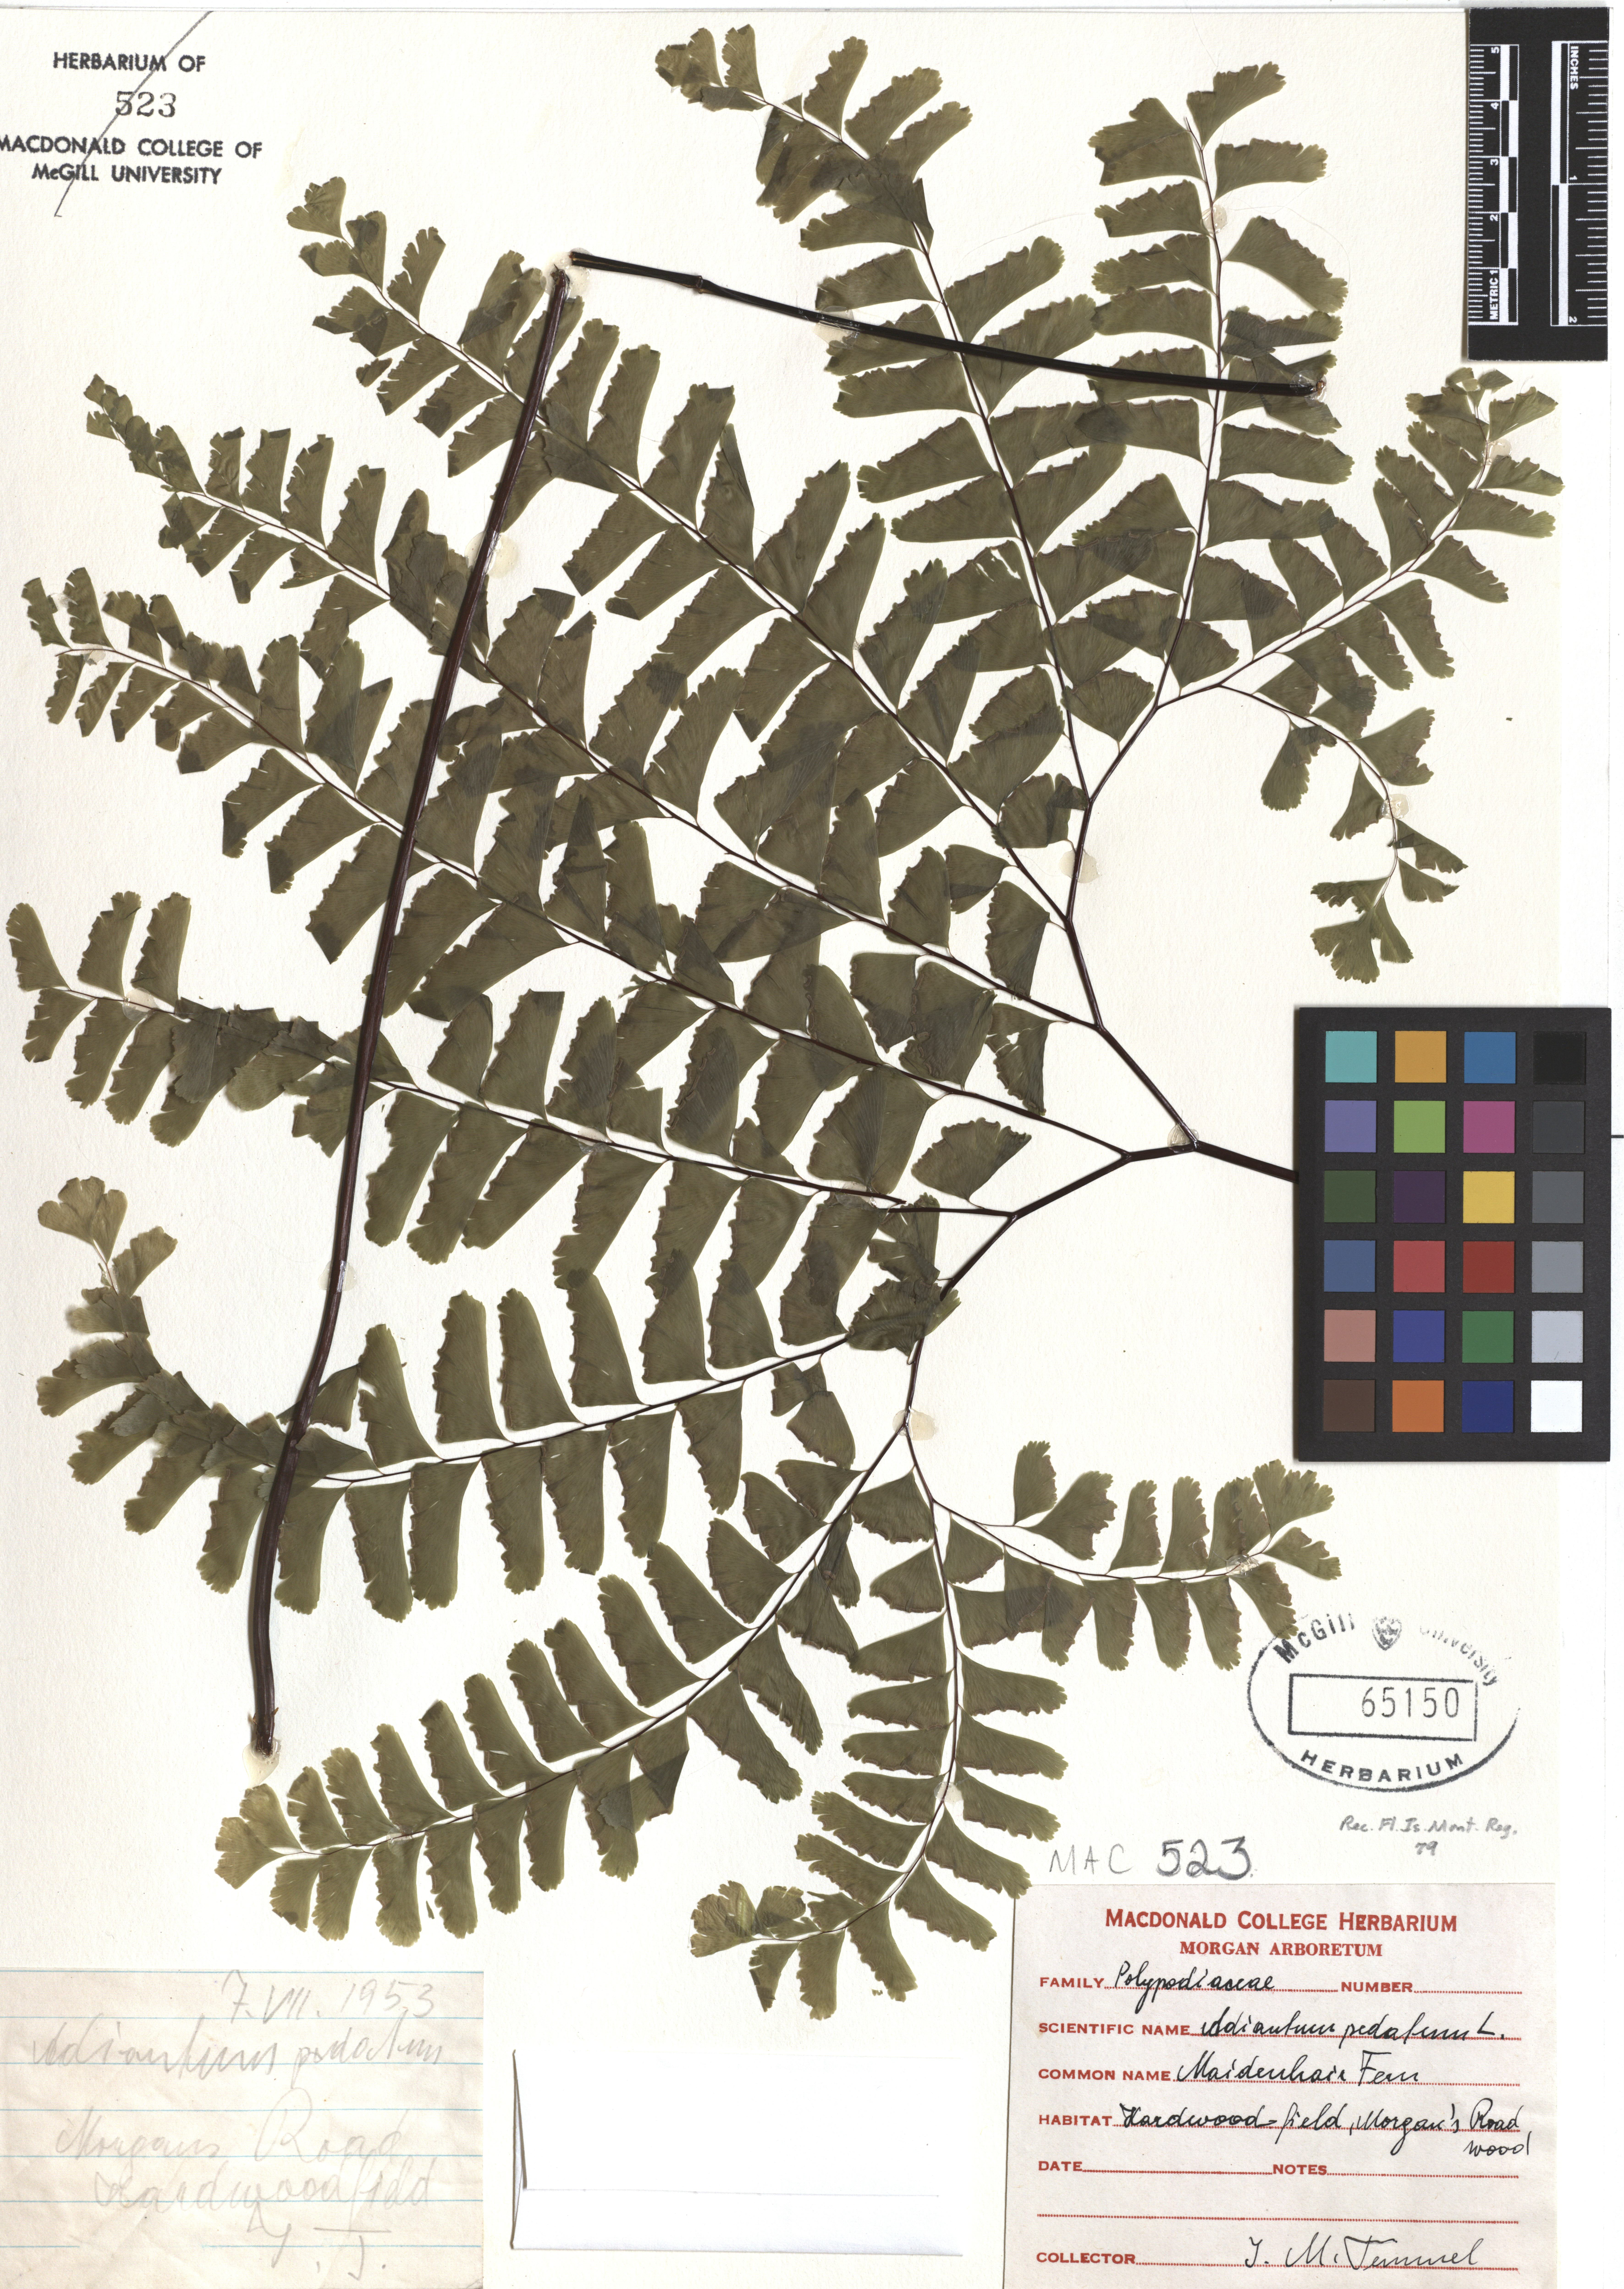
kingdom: Plantae
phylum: Tracheophyta
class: Polypodiopsida
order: Polypodiales
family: Pteridaceae
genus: Adiantum
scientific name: Adiantum pedatum
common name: Five-finger fern
